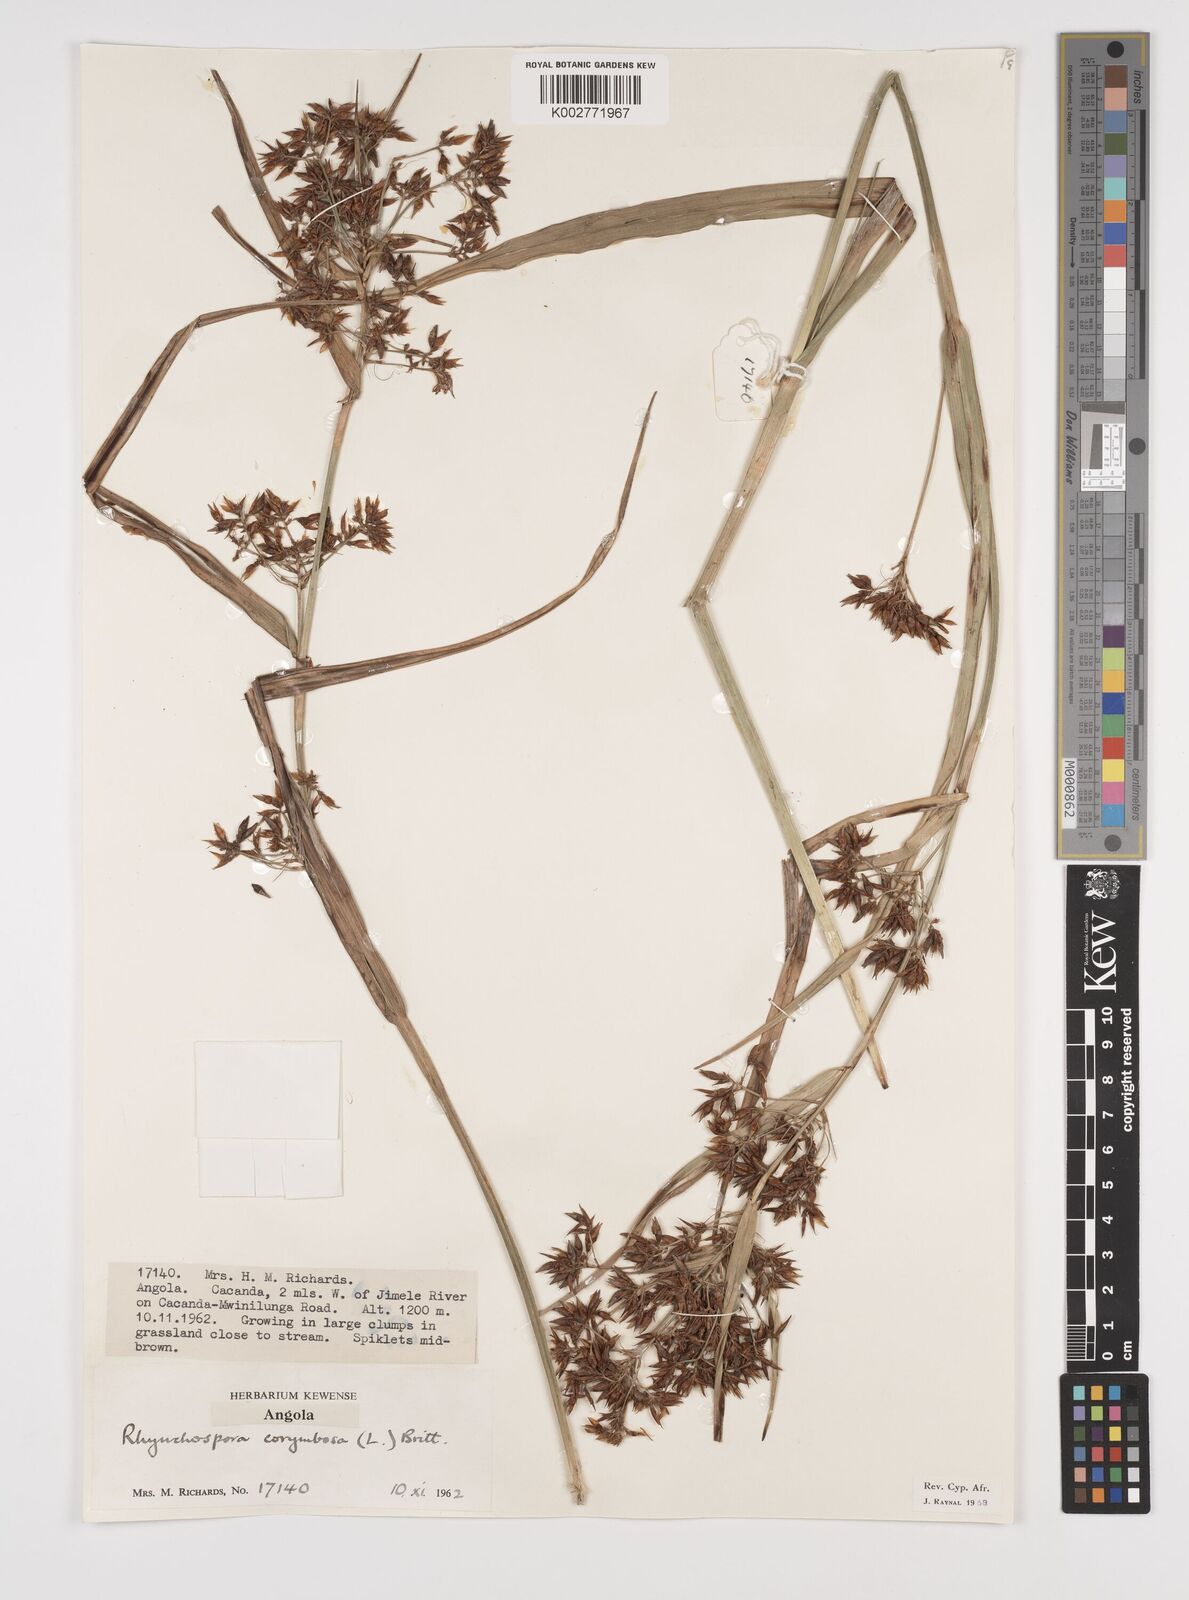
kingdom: Plantae
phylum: Tracheophyta
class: Liliopsida
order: Poales
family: Cyperaceae
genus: Rhynchospora
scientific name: Rhynchospora corymbosa
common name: Golden beak sedge
